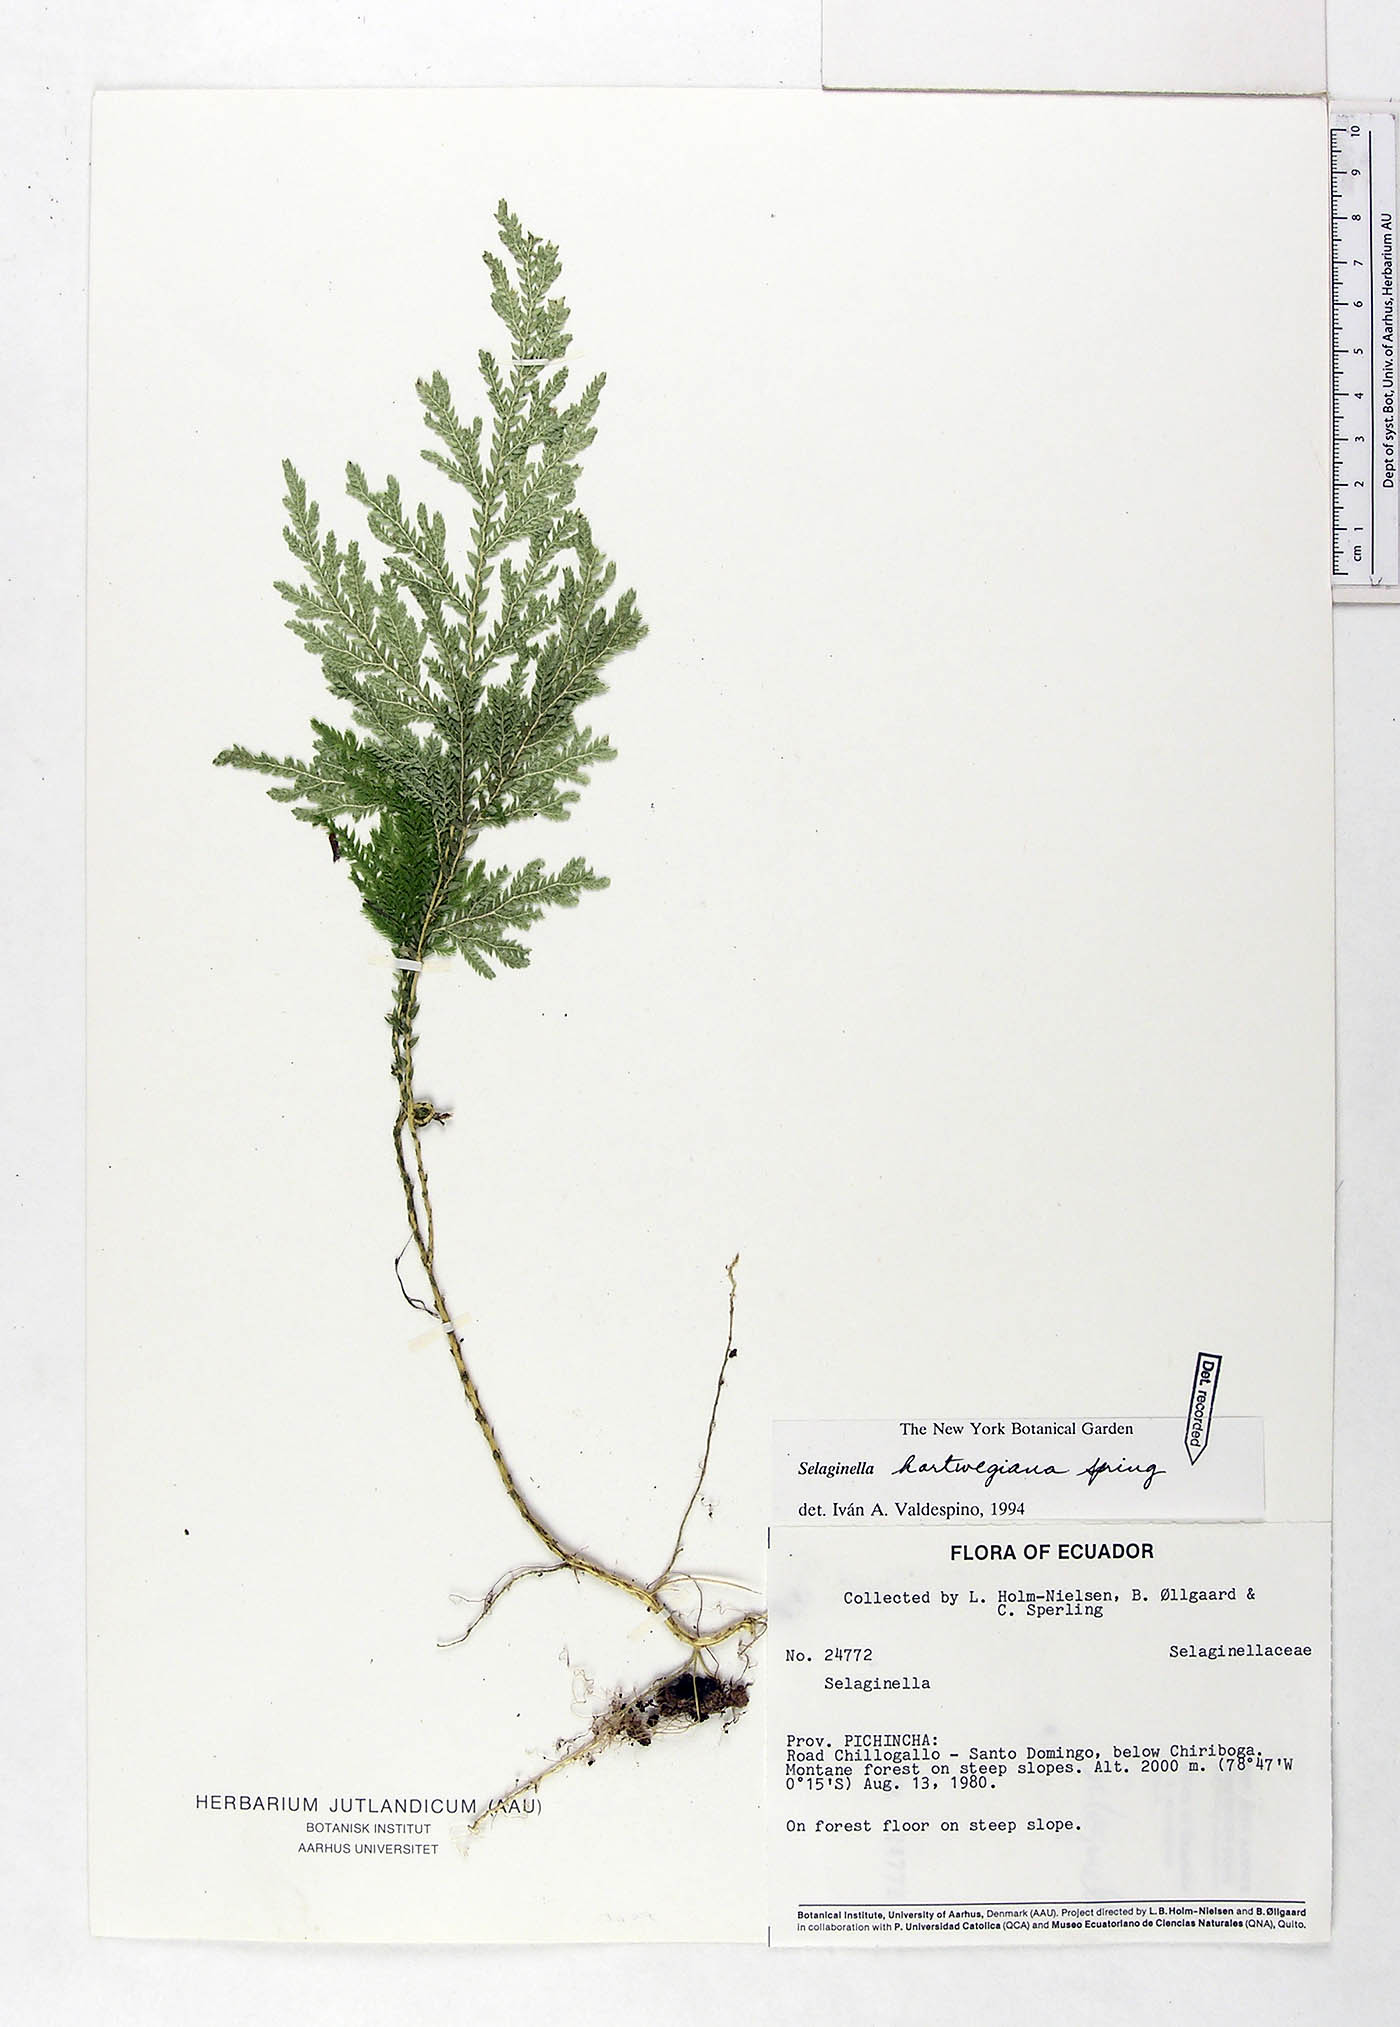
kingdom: Plantae
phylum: Tracheophyta
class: Lycopodiopsida
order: Selaginellales
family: Selaginellaceae
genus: Selaginella
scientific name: Selaginella hartwegiana
